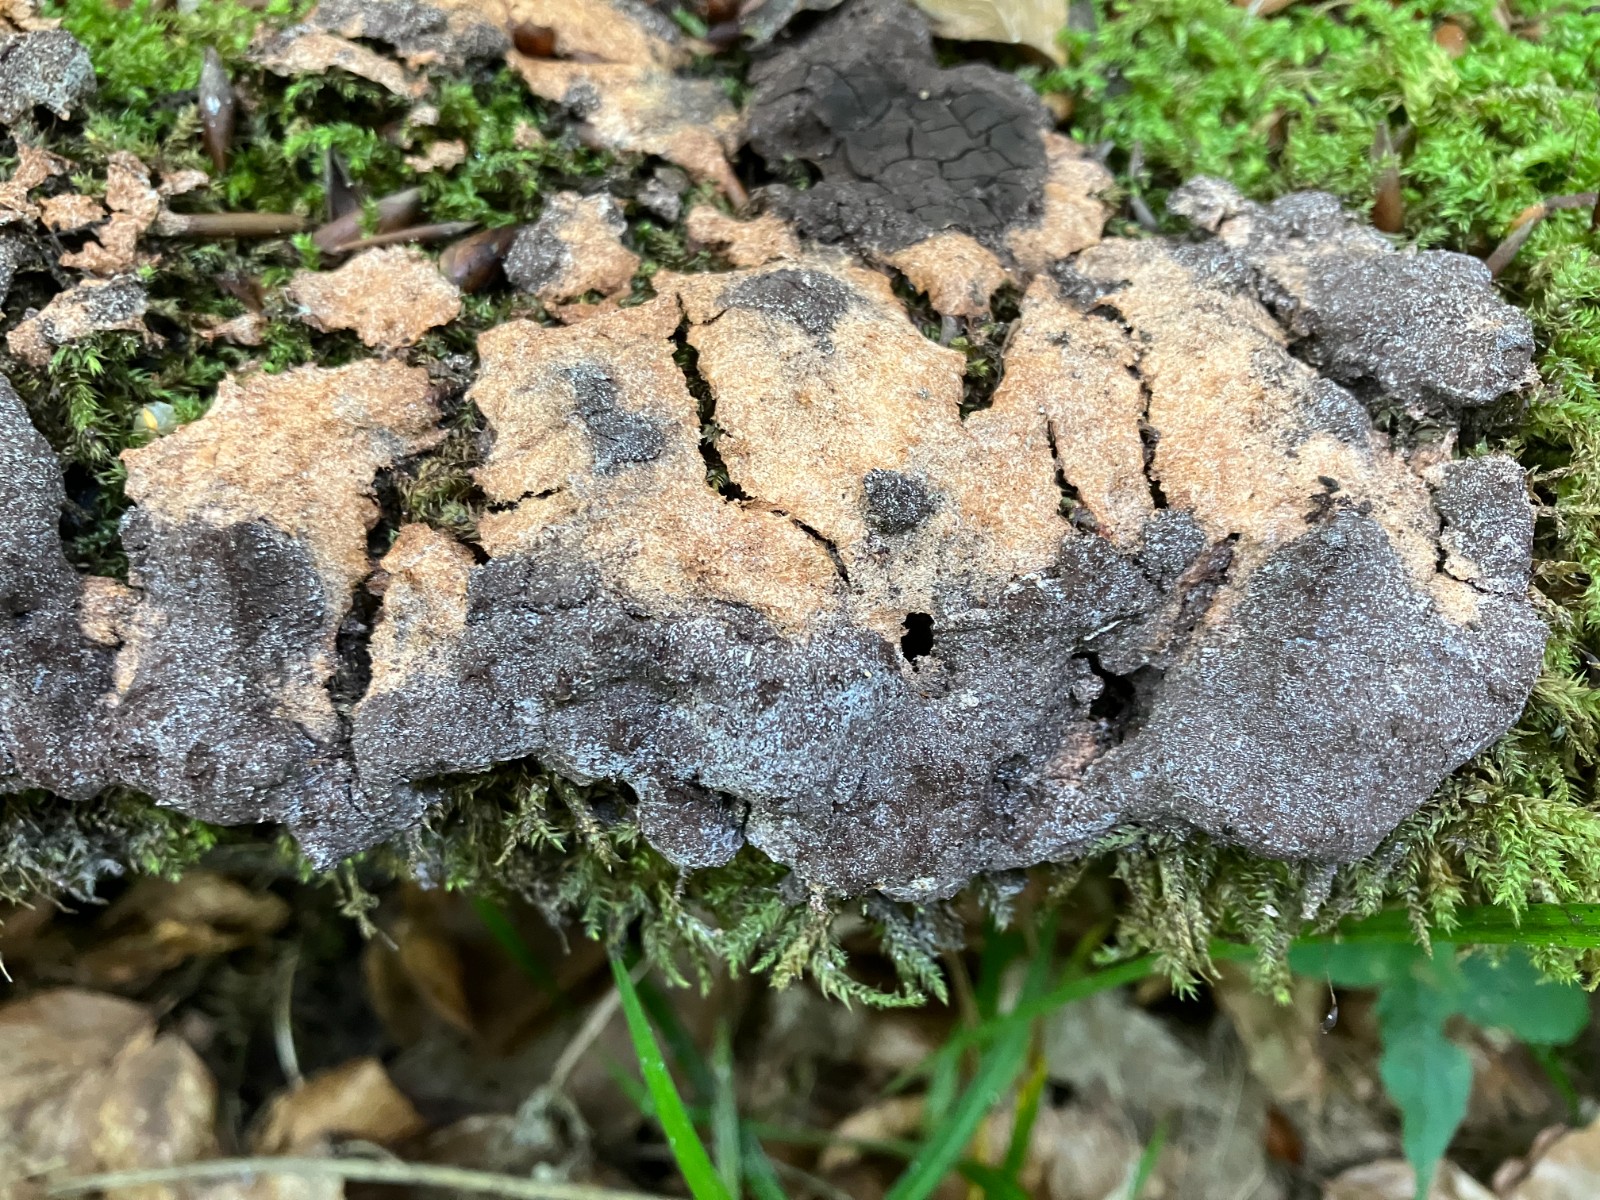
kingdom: Protozoa
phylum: Mycetozoa
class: Myxomycetes
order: Physarales
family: Physaraceae
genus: Fuligo
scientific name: Fuligo septica
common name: Dog vomit slime mold
